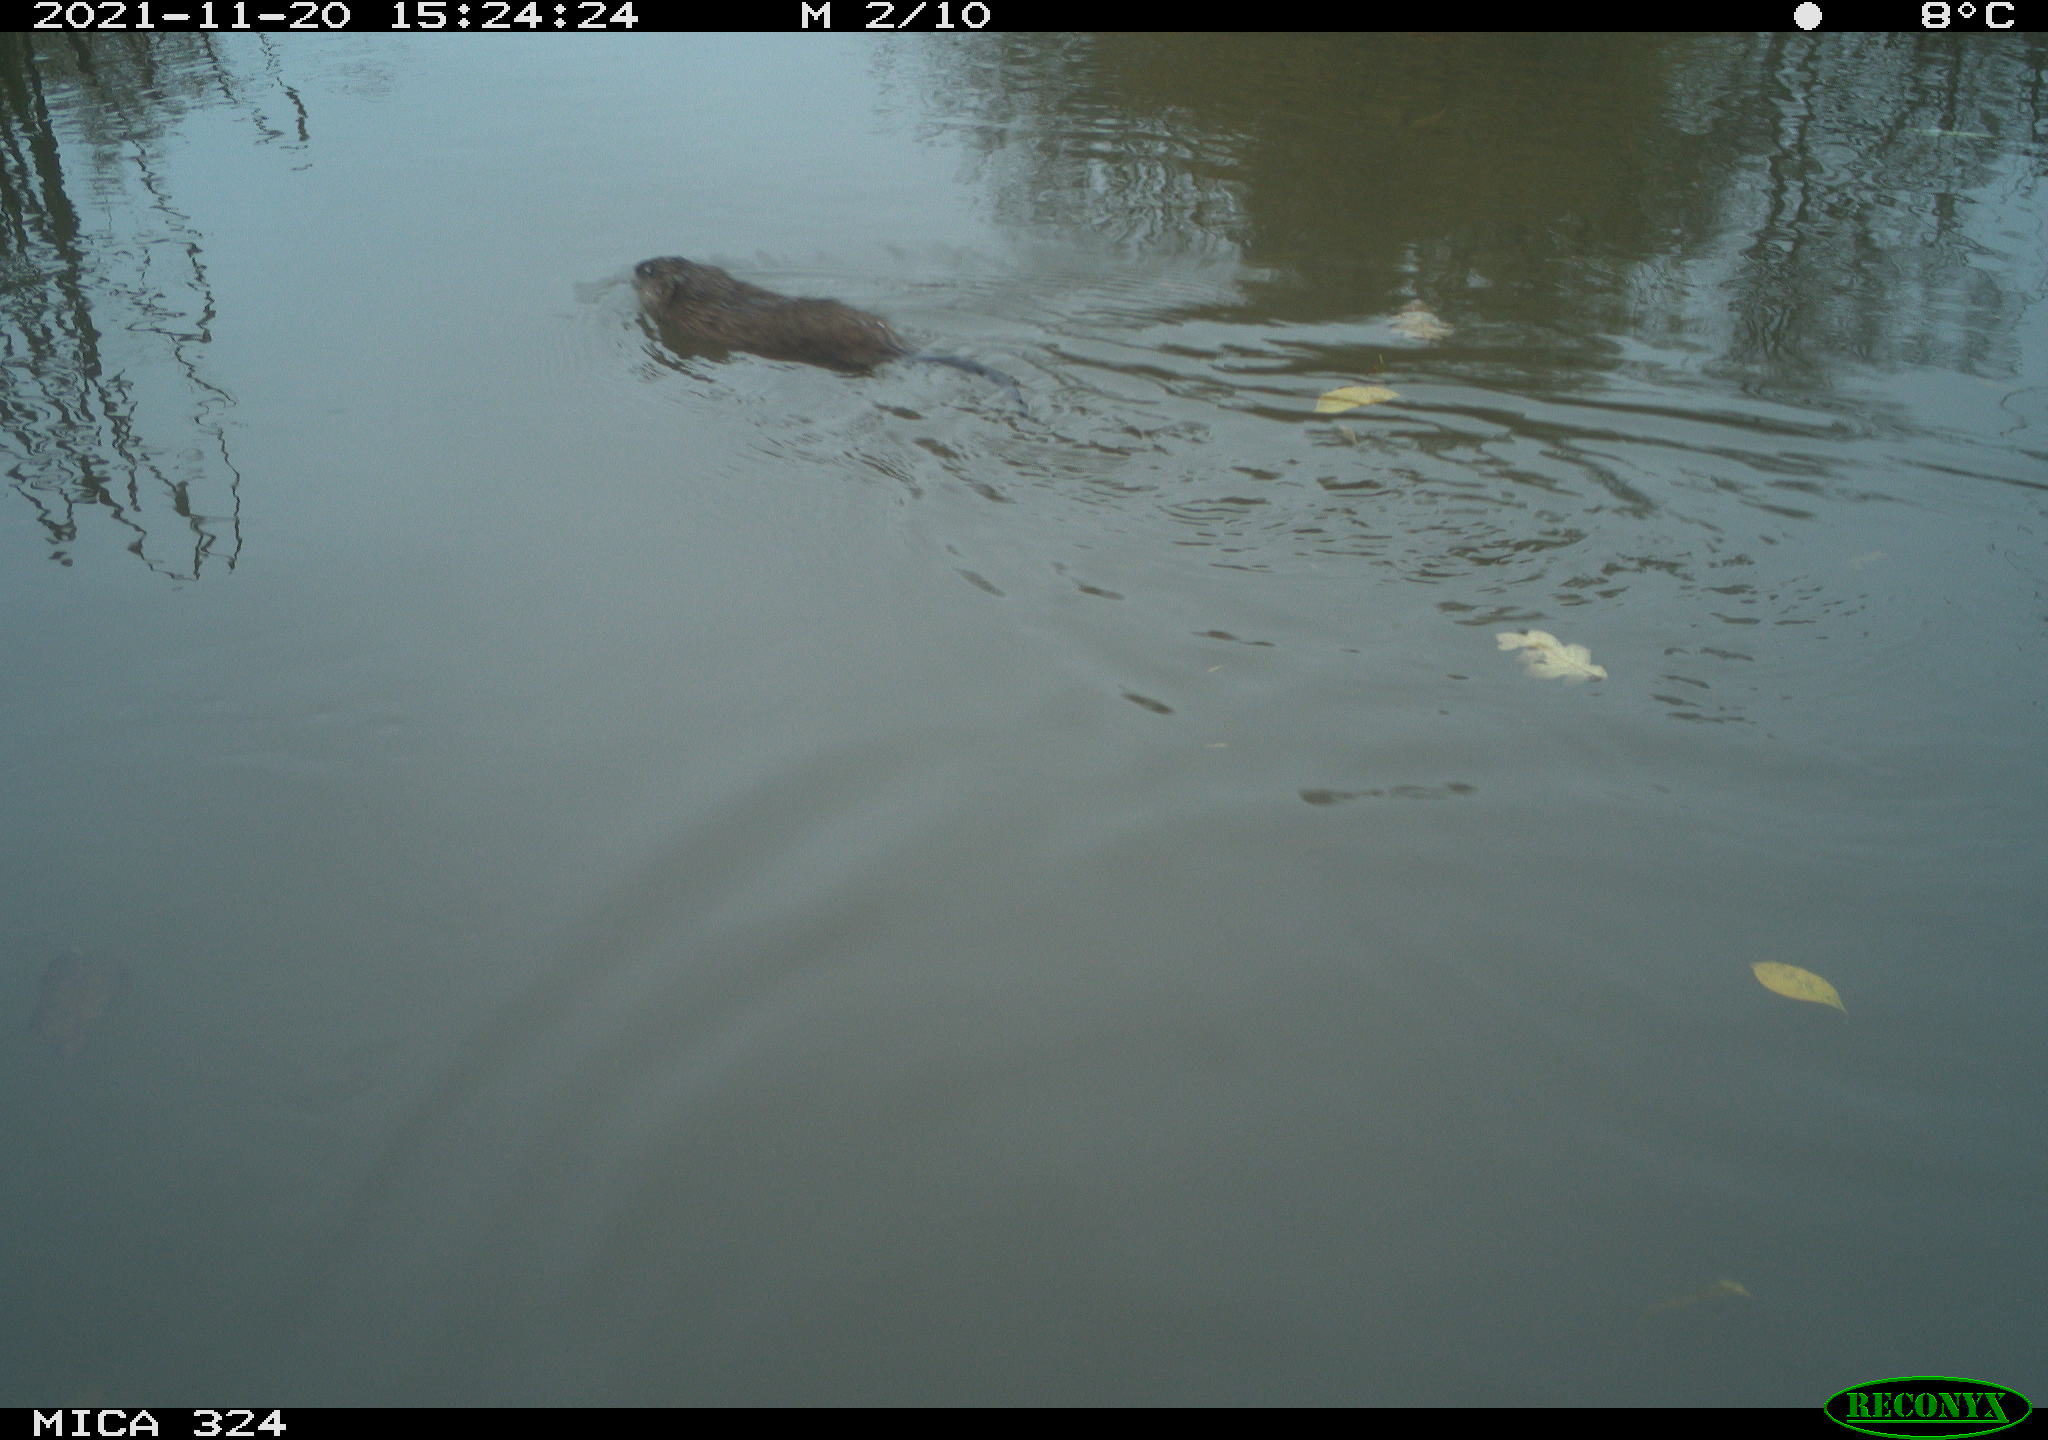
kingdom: Animalia
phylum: Chordata
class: Mammalia
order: Rodentia
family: Cricetidae
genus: Ondatra
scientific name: Ondatra zibethicus
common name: Muskrat
